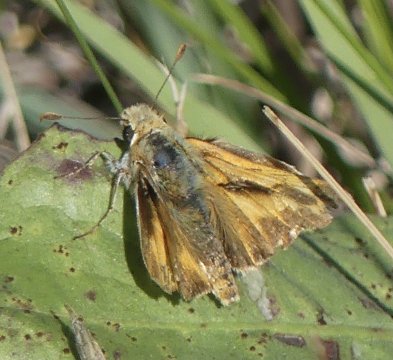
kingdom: Animalia
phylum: Arthropoda
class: Insecta
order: Lepidoptera
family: Hesperiidae
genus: Ochlodes
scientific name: Ochlodes sylvanoides
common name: Woodland Skipper
